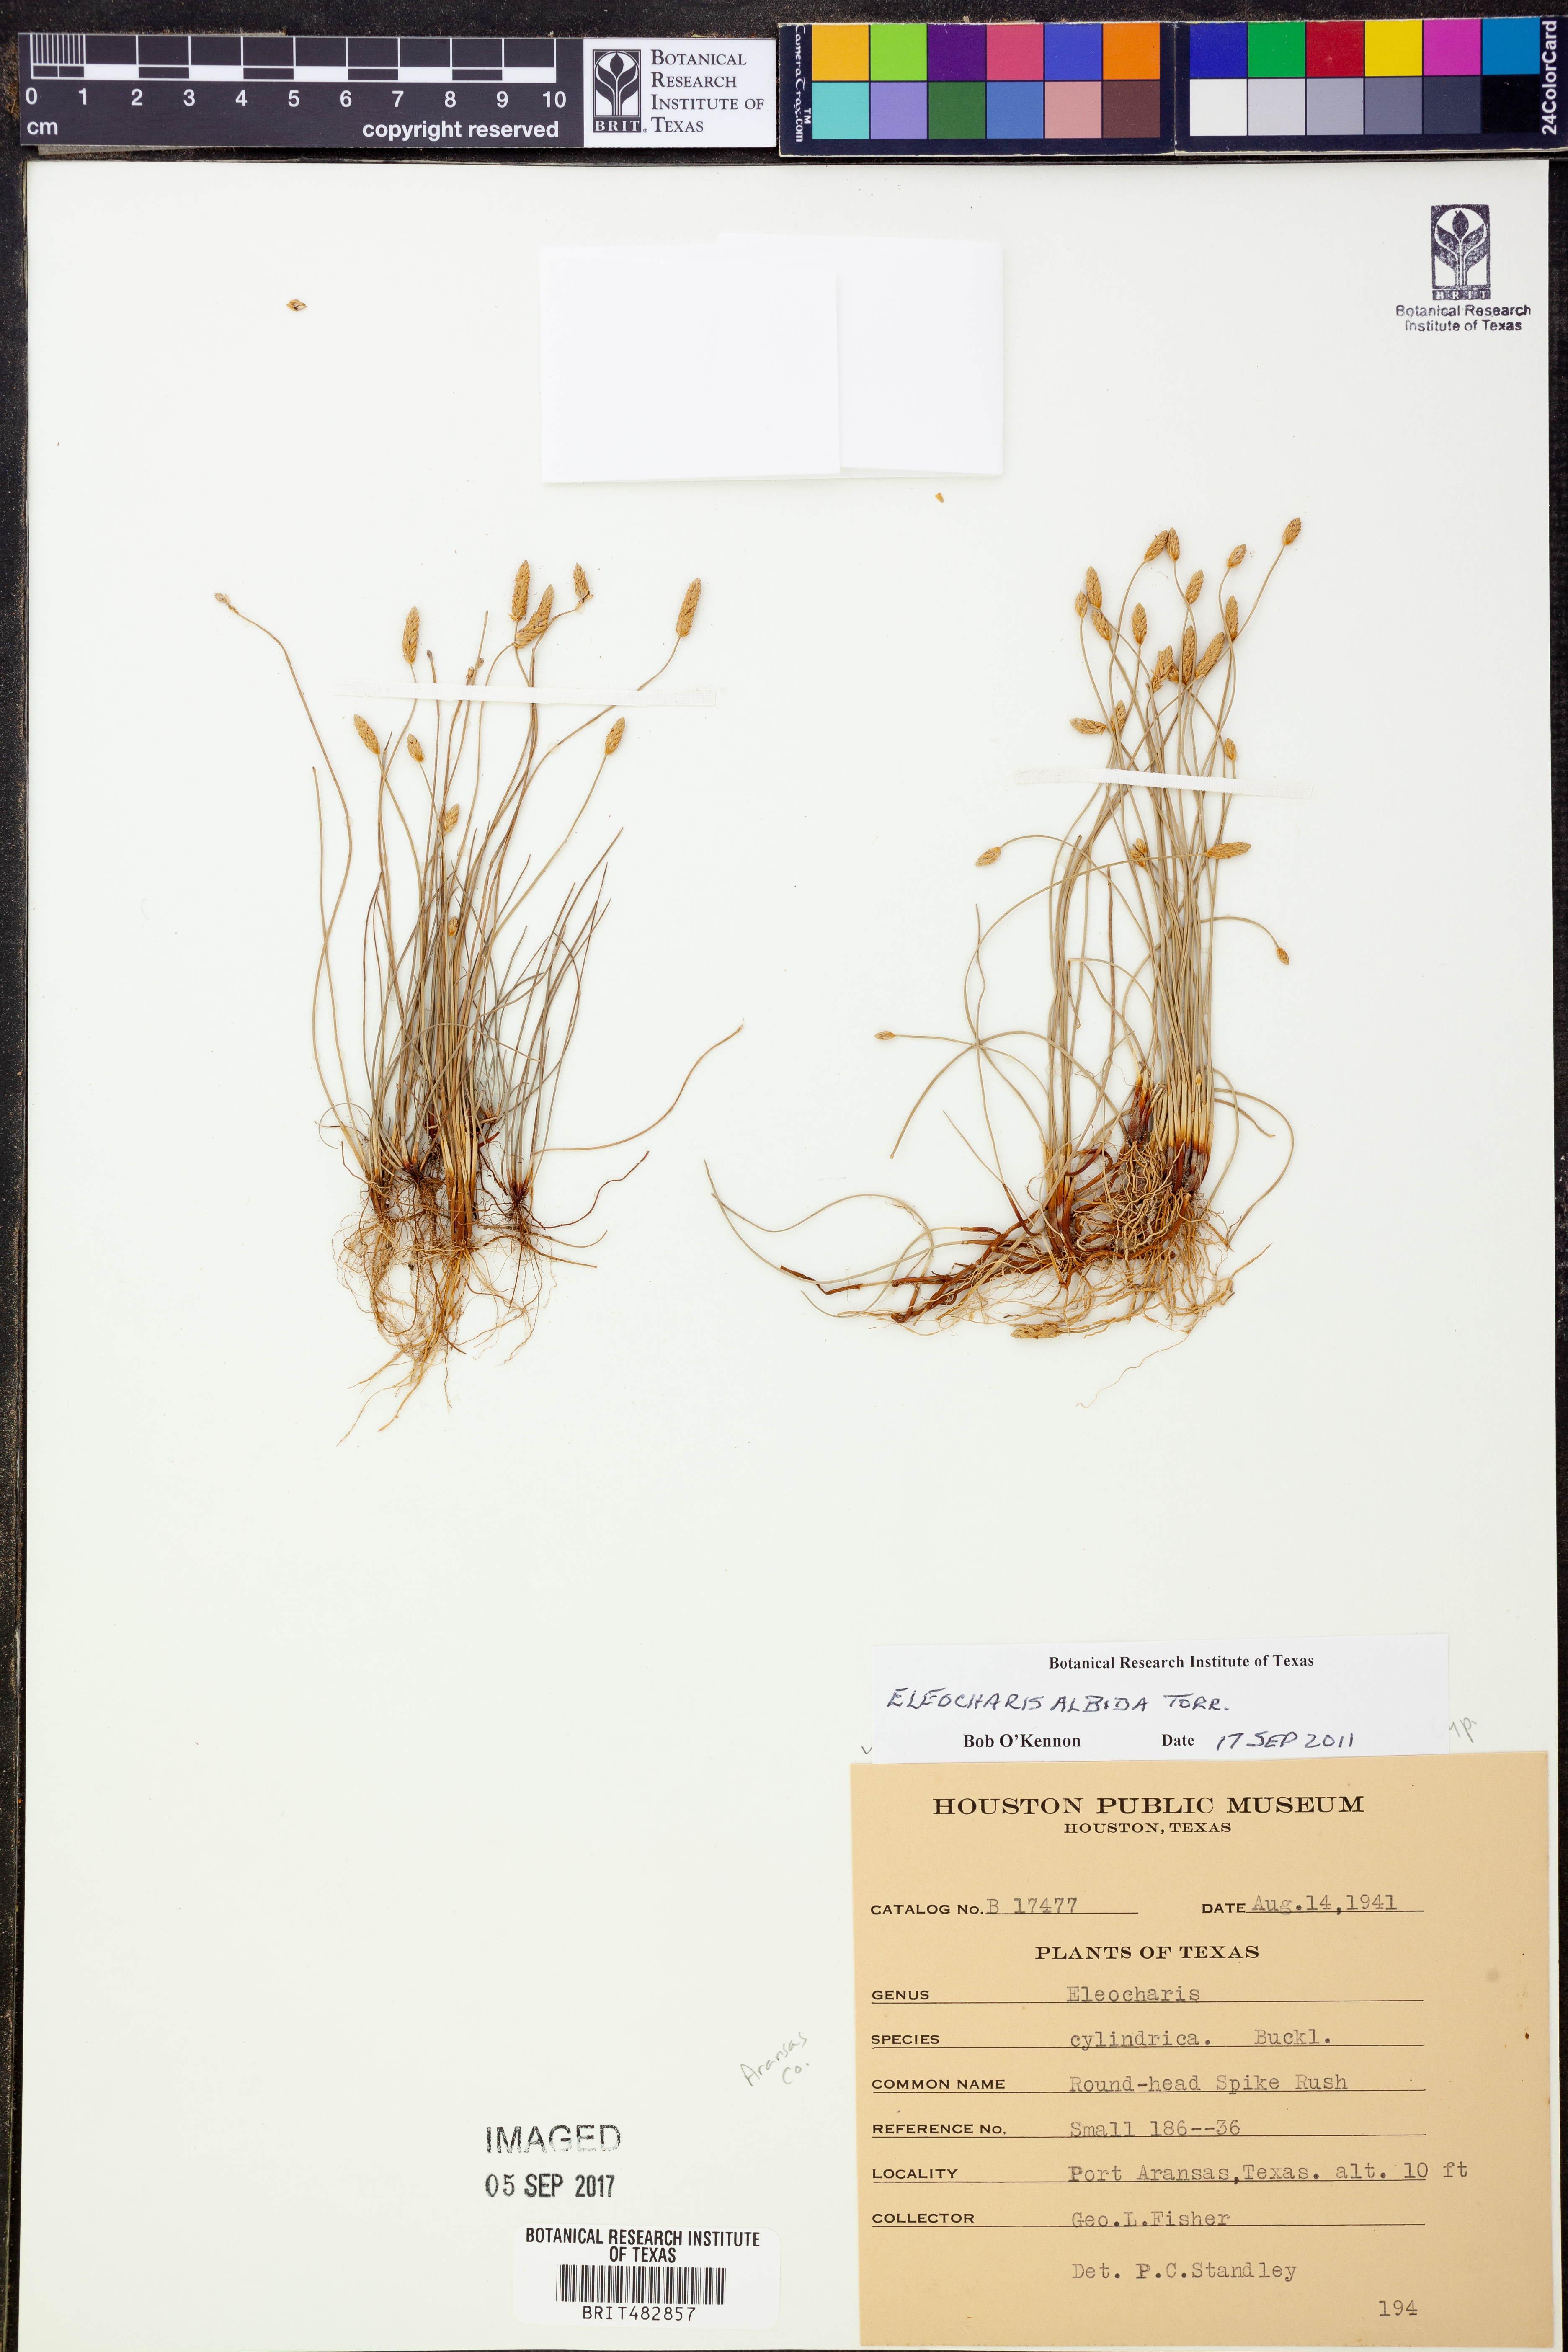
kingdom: Plantae
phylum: Tracheophyta
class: Liliopsida
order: Poales
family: Cyperaceae
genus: Eleocharis
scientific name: Eleocharis albida
